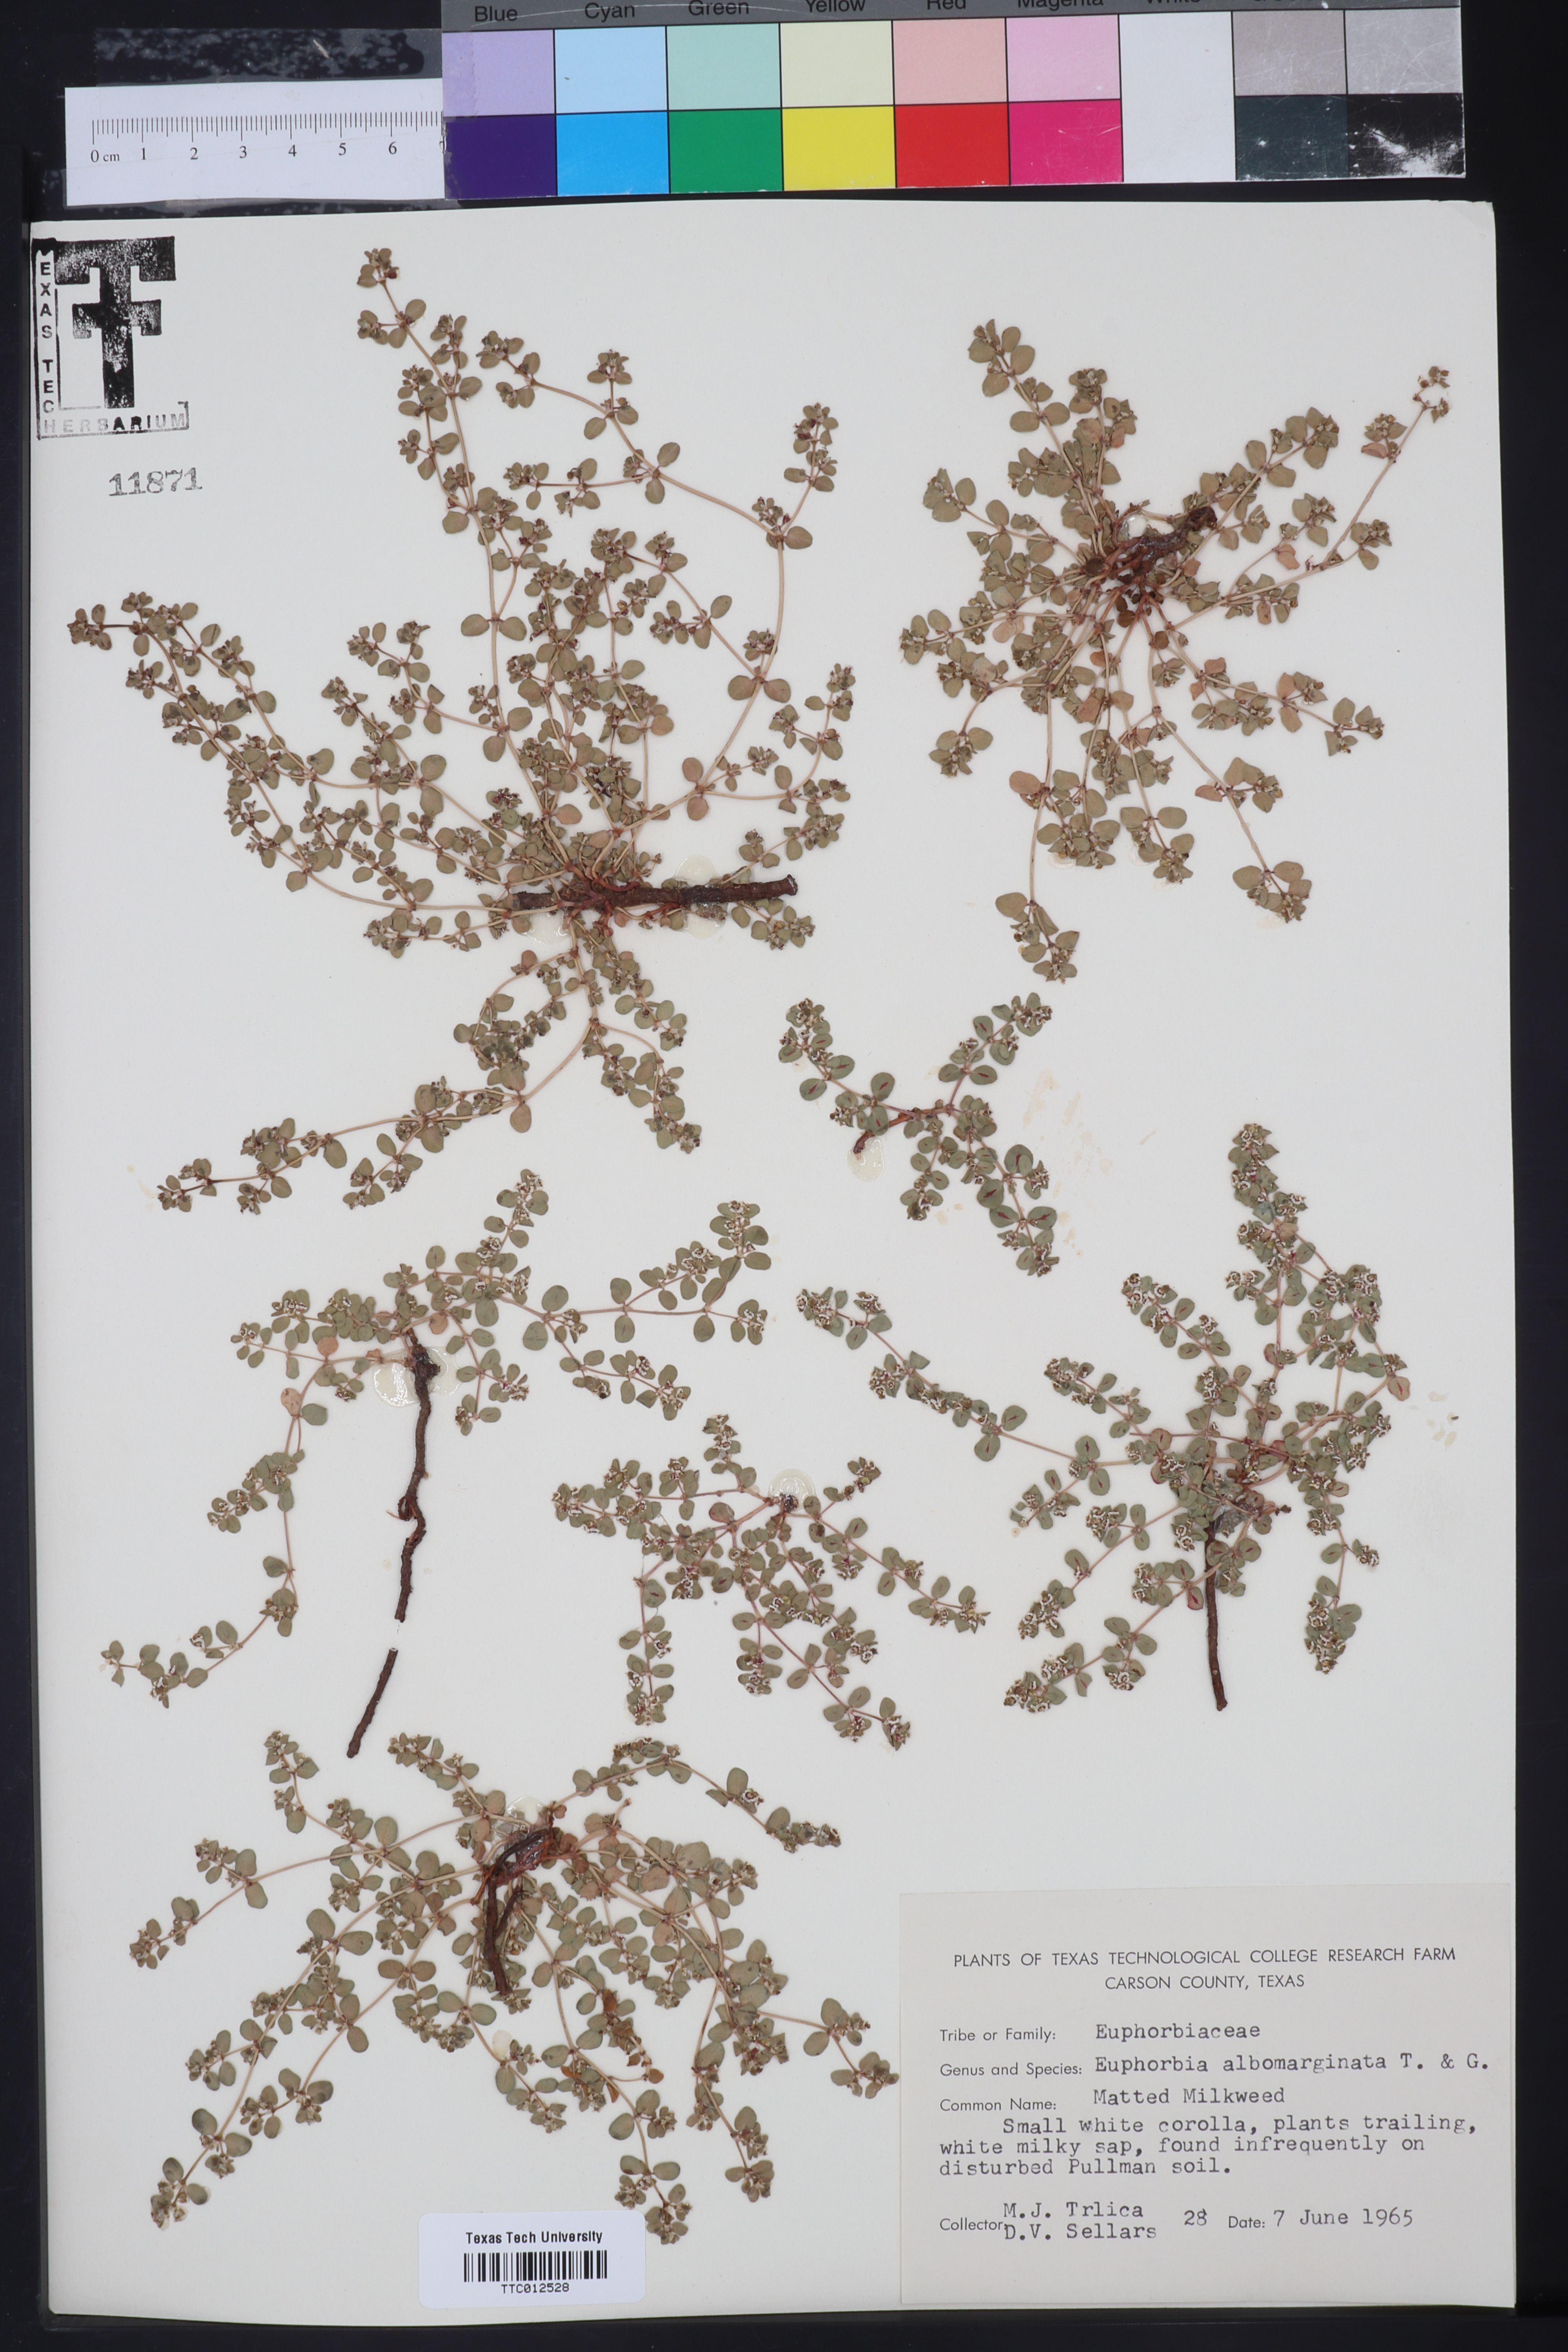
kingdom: Plantae
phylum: Tracheophyta
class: Magnoliopsida
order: Malpighiales
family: Euphorbiaceae
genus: Euphorbia
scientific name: Euphorbia albomarginata
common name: Whitemargin sandmat
